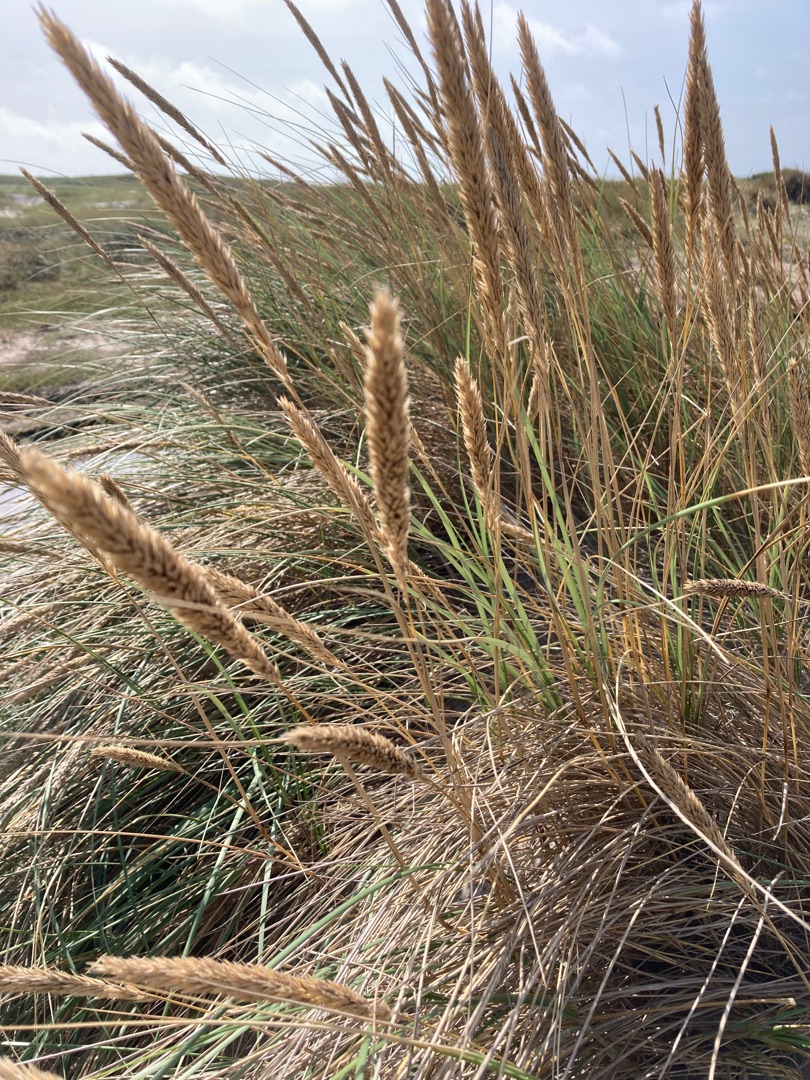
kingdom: Plantae
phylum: Tracheophyta
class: Liliopsida
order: Poales
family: Poaceae
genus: Calamagrostis
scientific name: Calamagrostis arenaria
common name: Sand-hjælme
